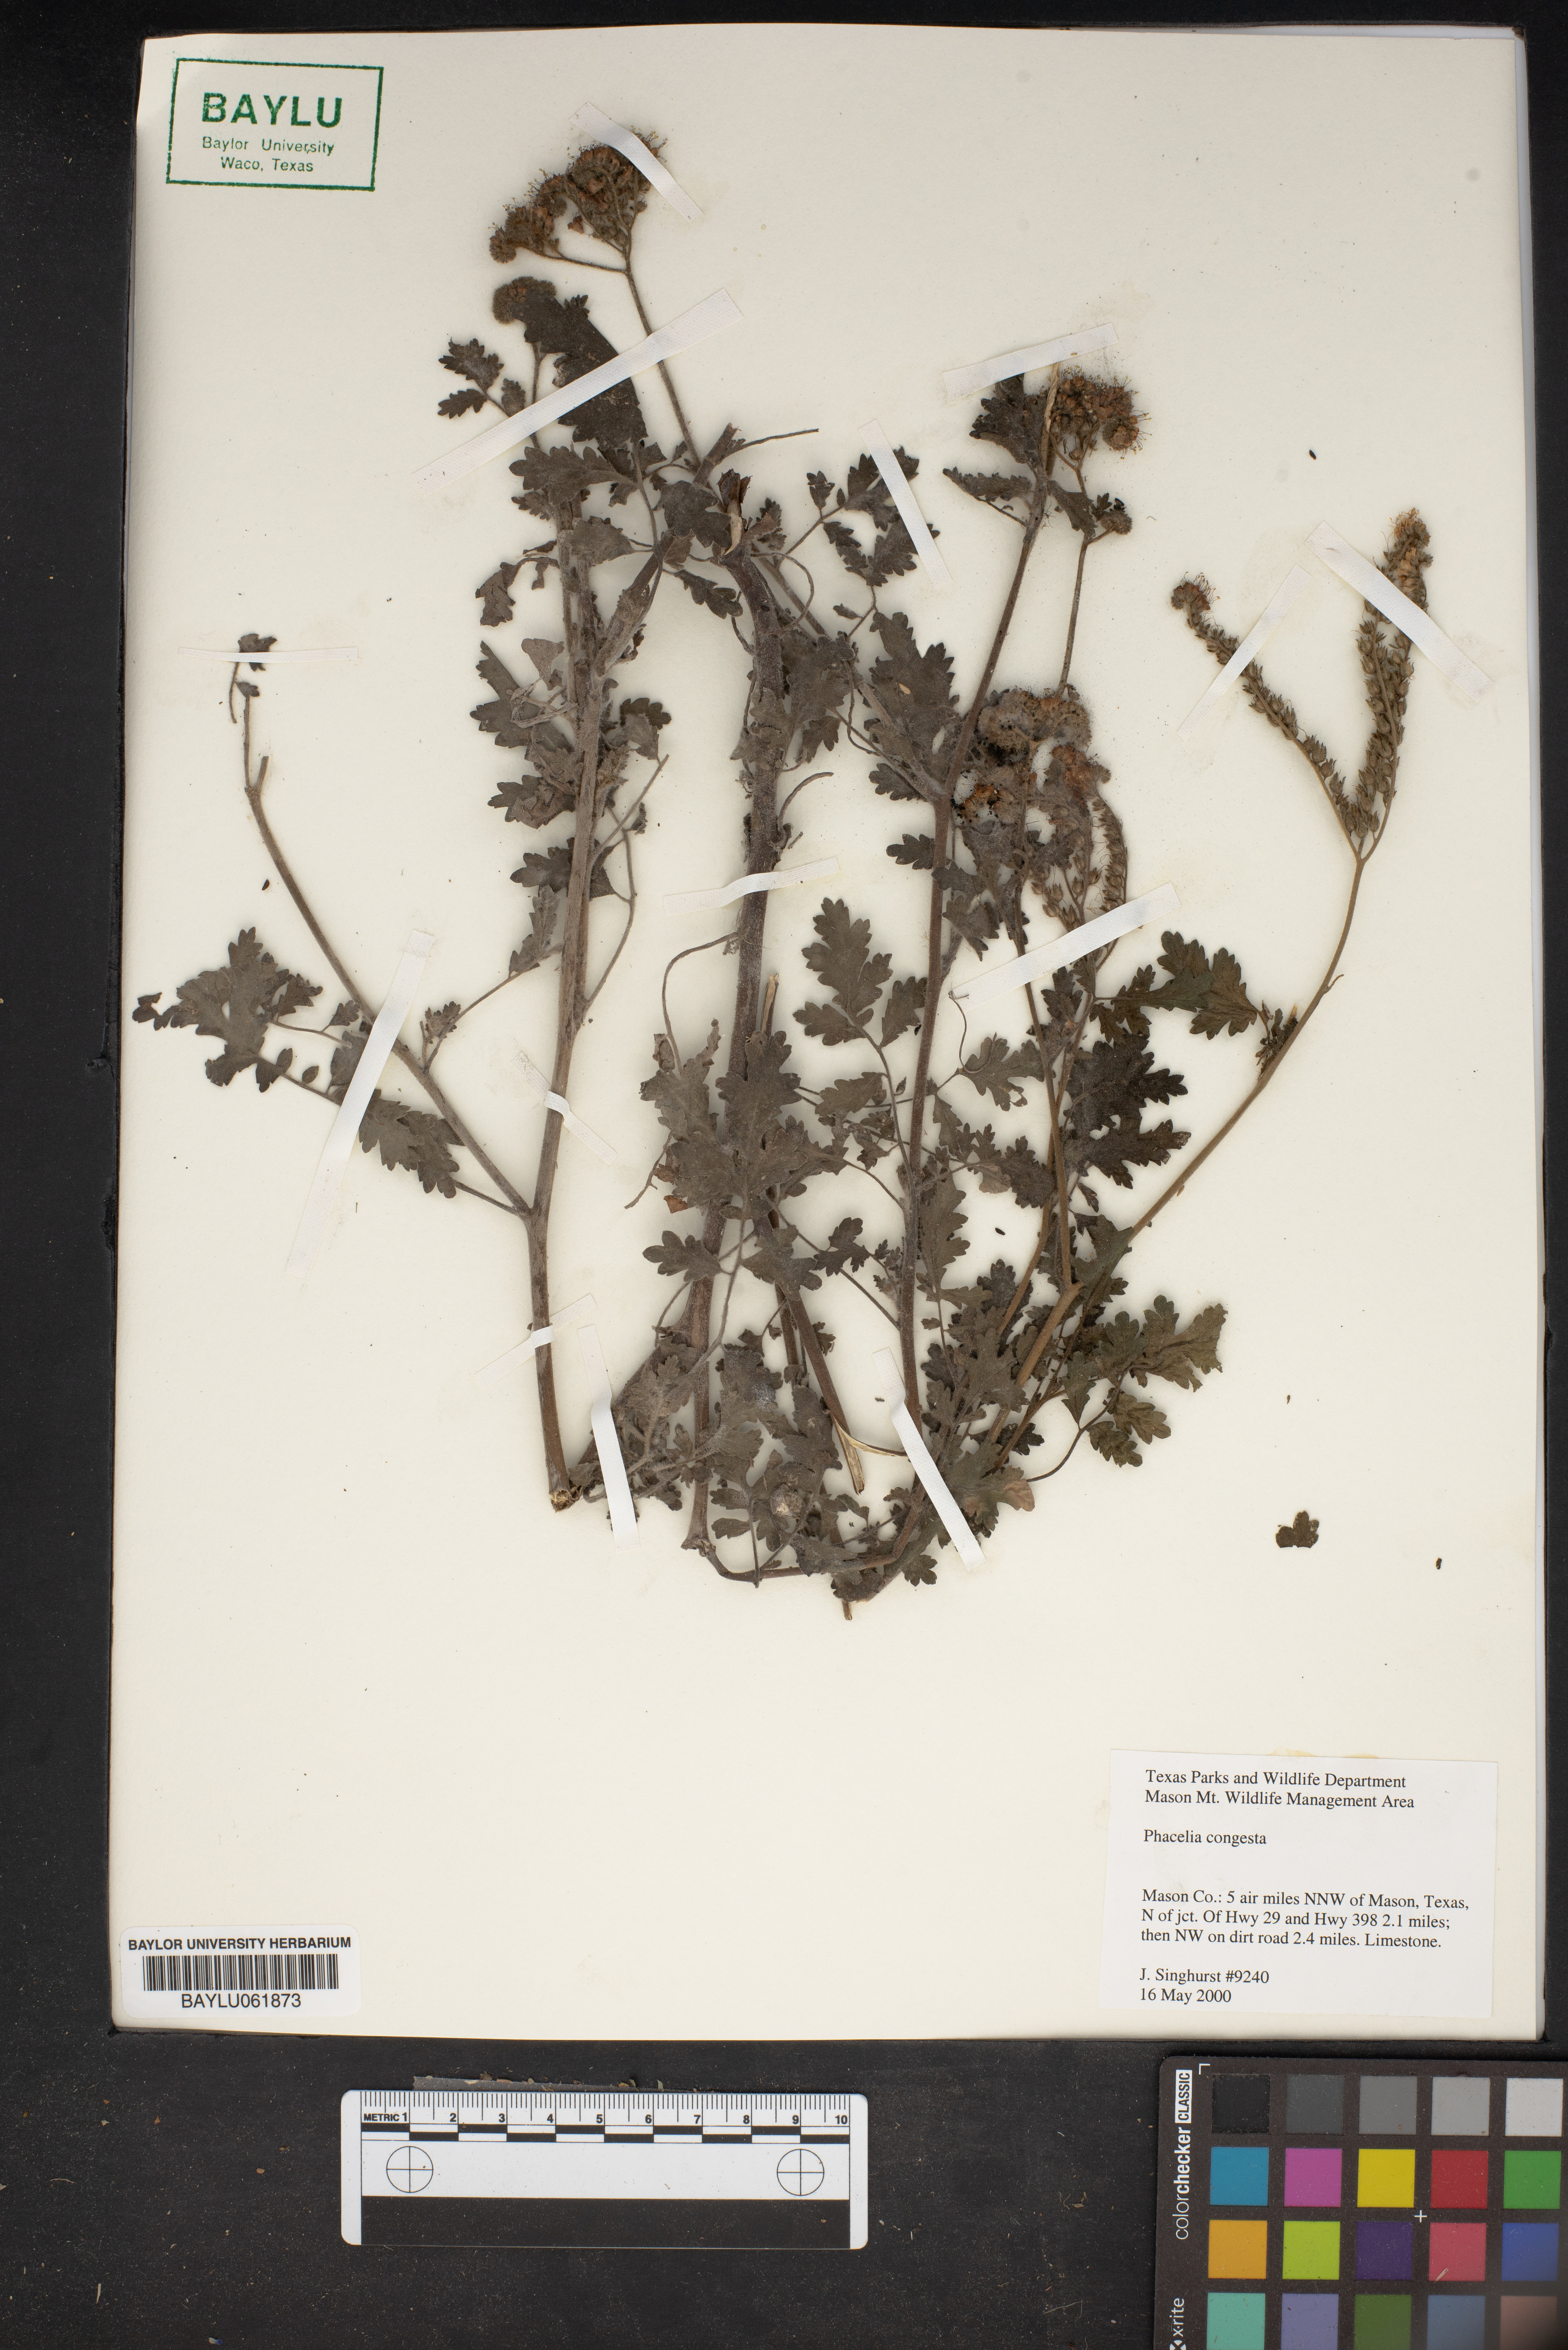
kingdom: Plantae
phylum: Tracheophyta
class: Magnoliopsida
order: Boraginales
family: Hydrophyllaceae
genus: Phacelia
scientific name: Phacelia congesta
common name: Blue curls
